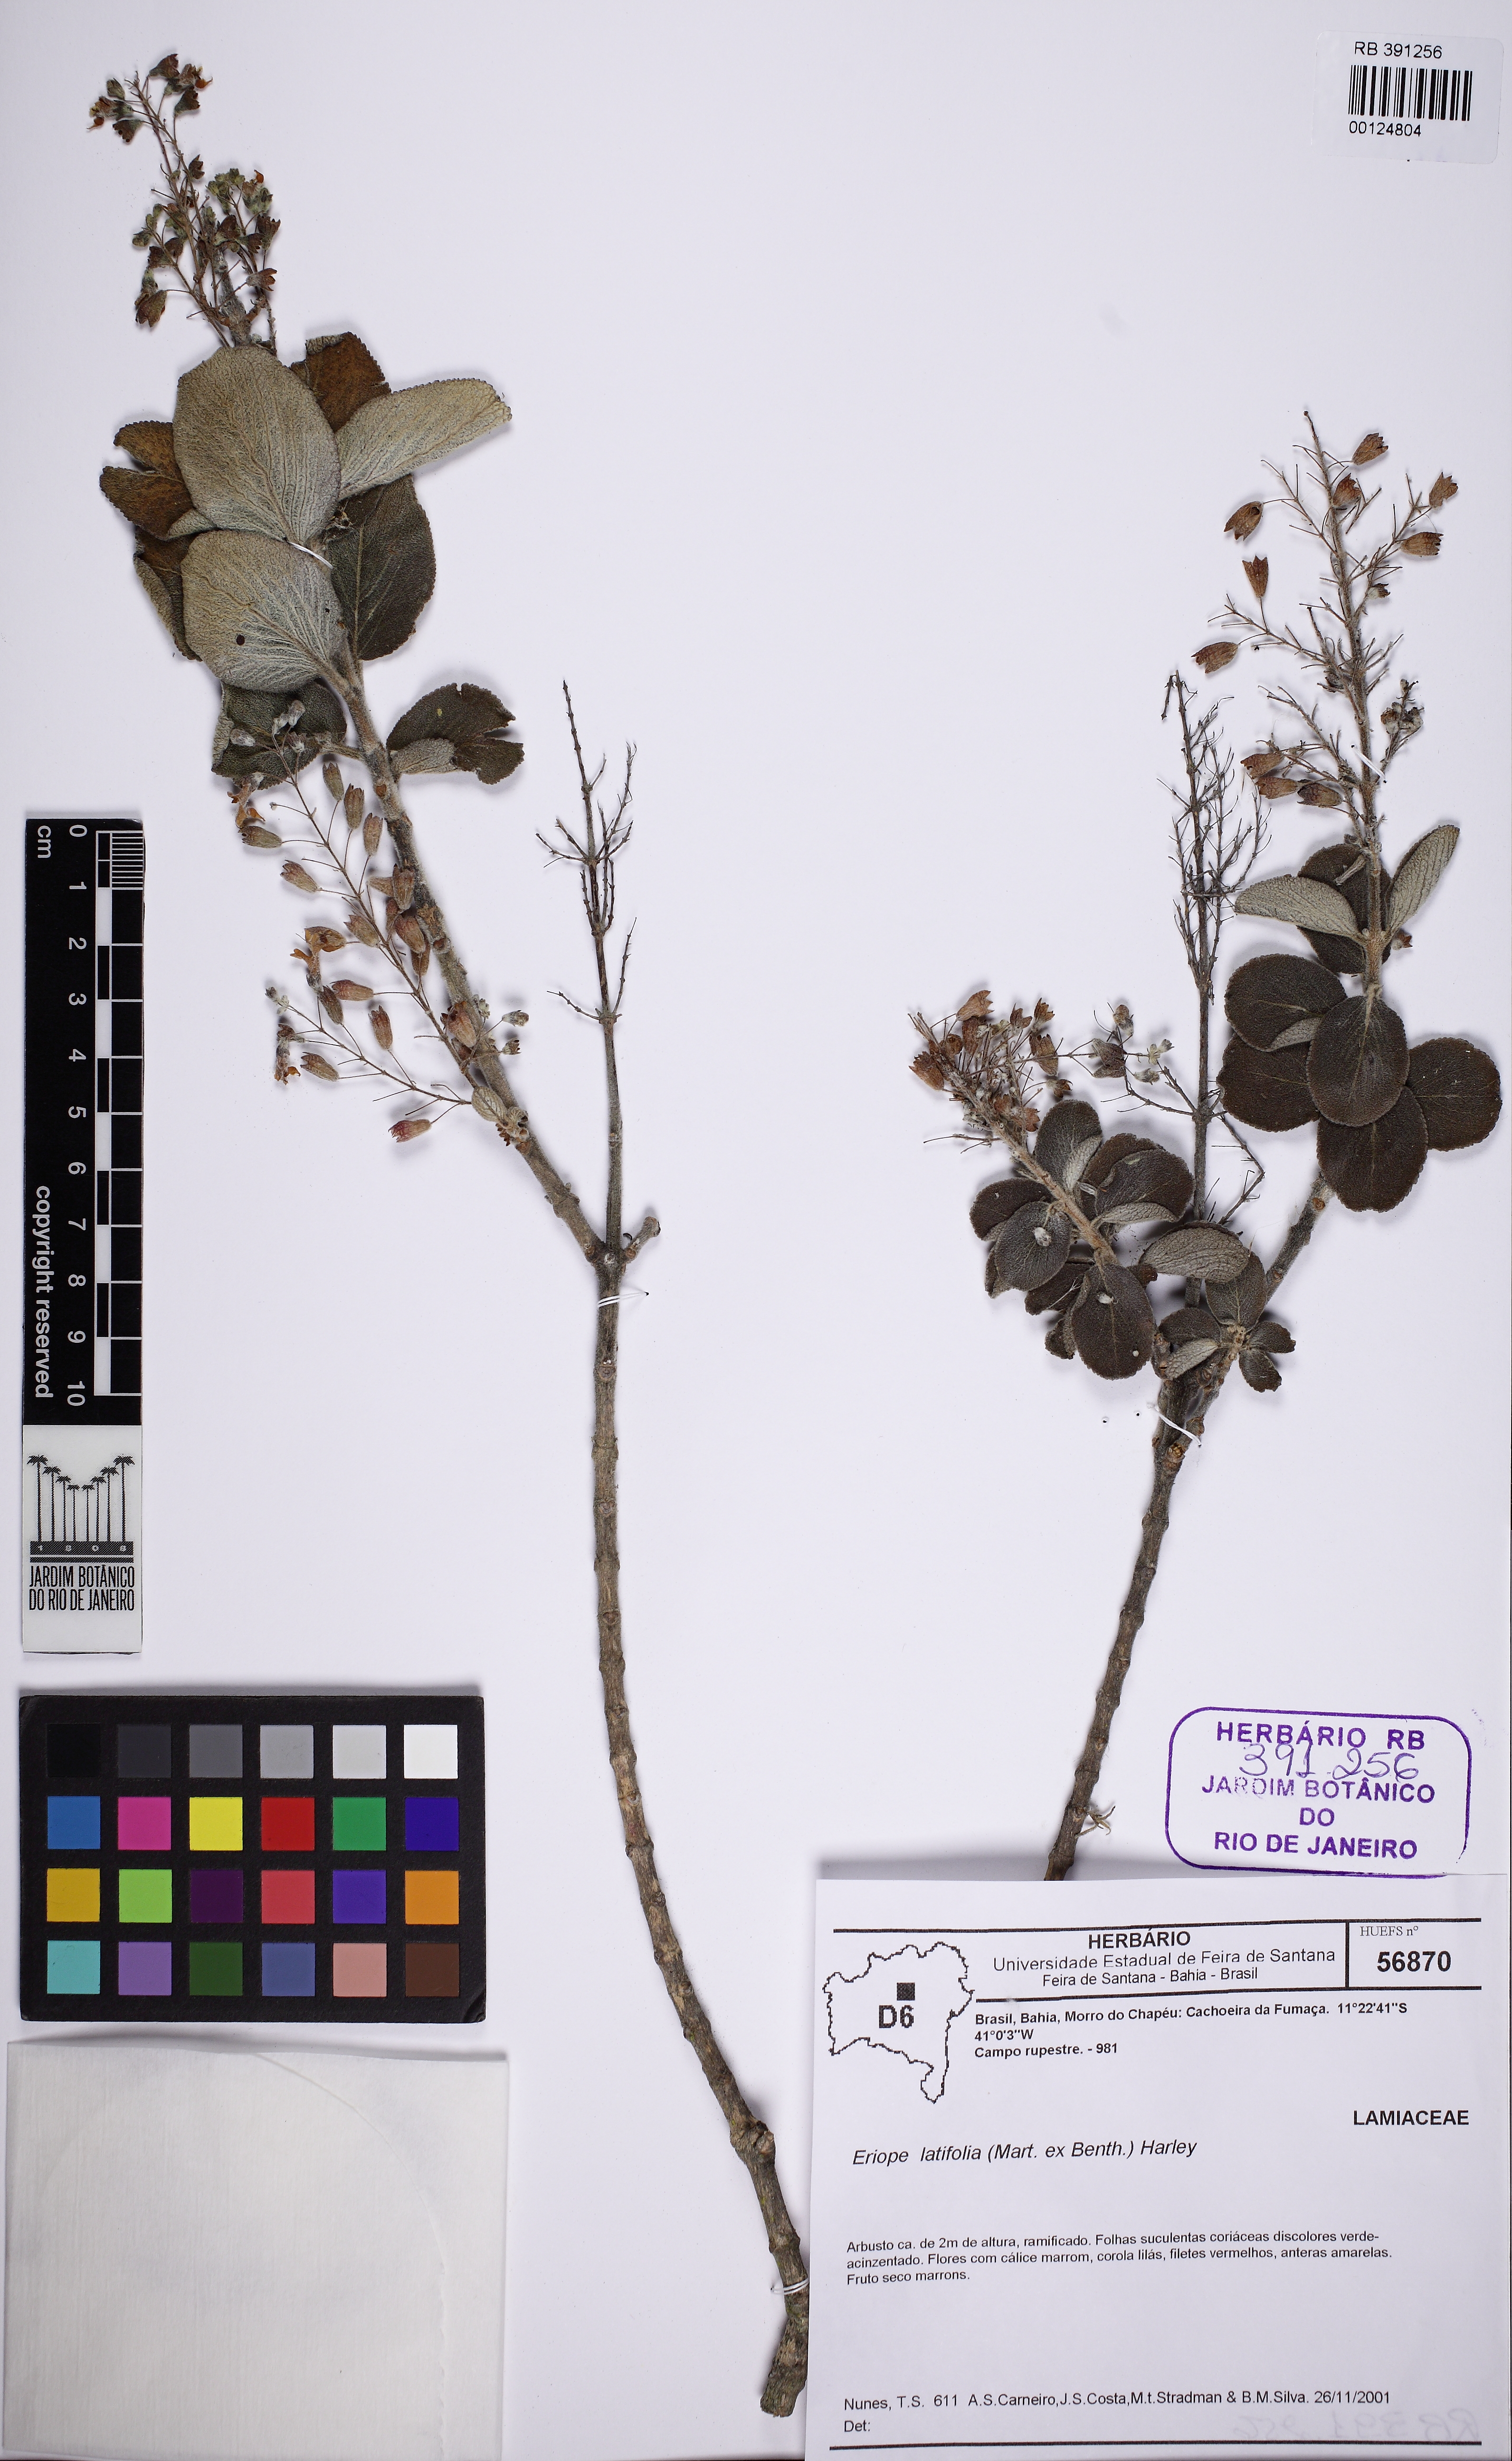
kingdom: Plantae
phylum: Tracheophyta
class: Magnoliopsida
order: Lamiales
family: Lamiaceae
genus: Eriope
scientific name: Eriope latifolia
